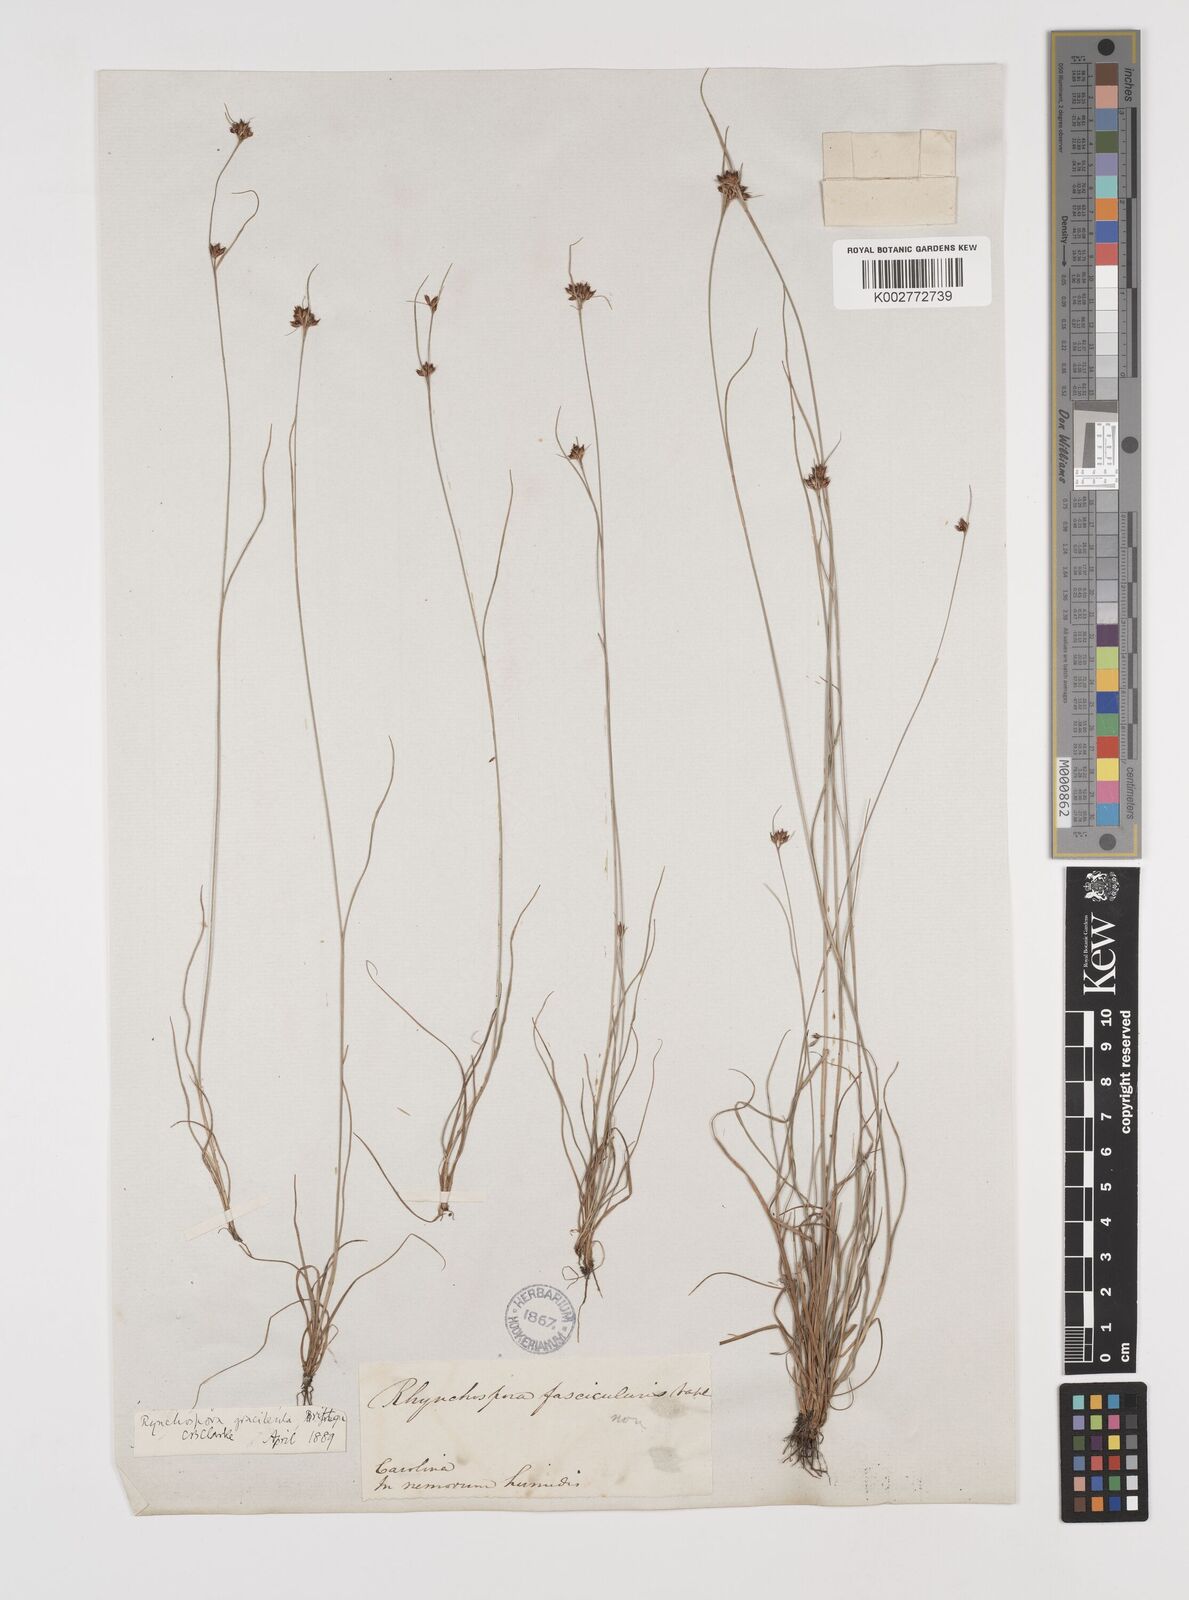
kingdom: Plantae
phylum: Tracheophyta
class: Liliopsida
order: Poales
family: Cyperaceae
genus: Rhynchospora
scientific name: Rhynchospora gracilenta
